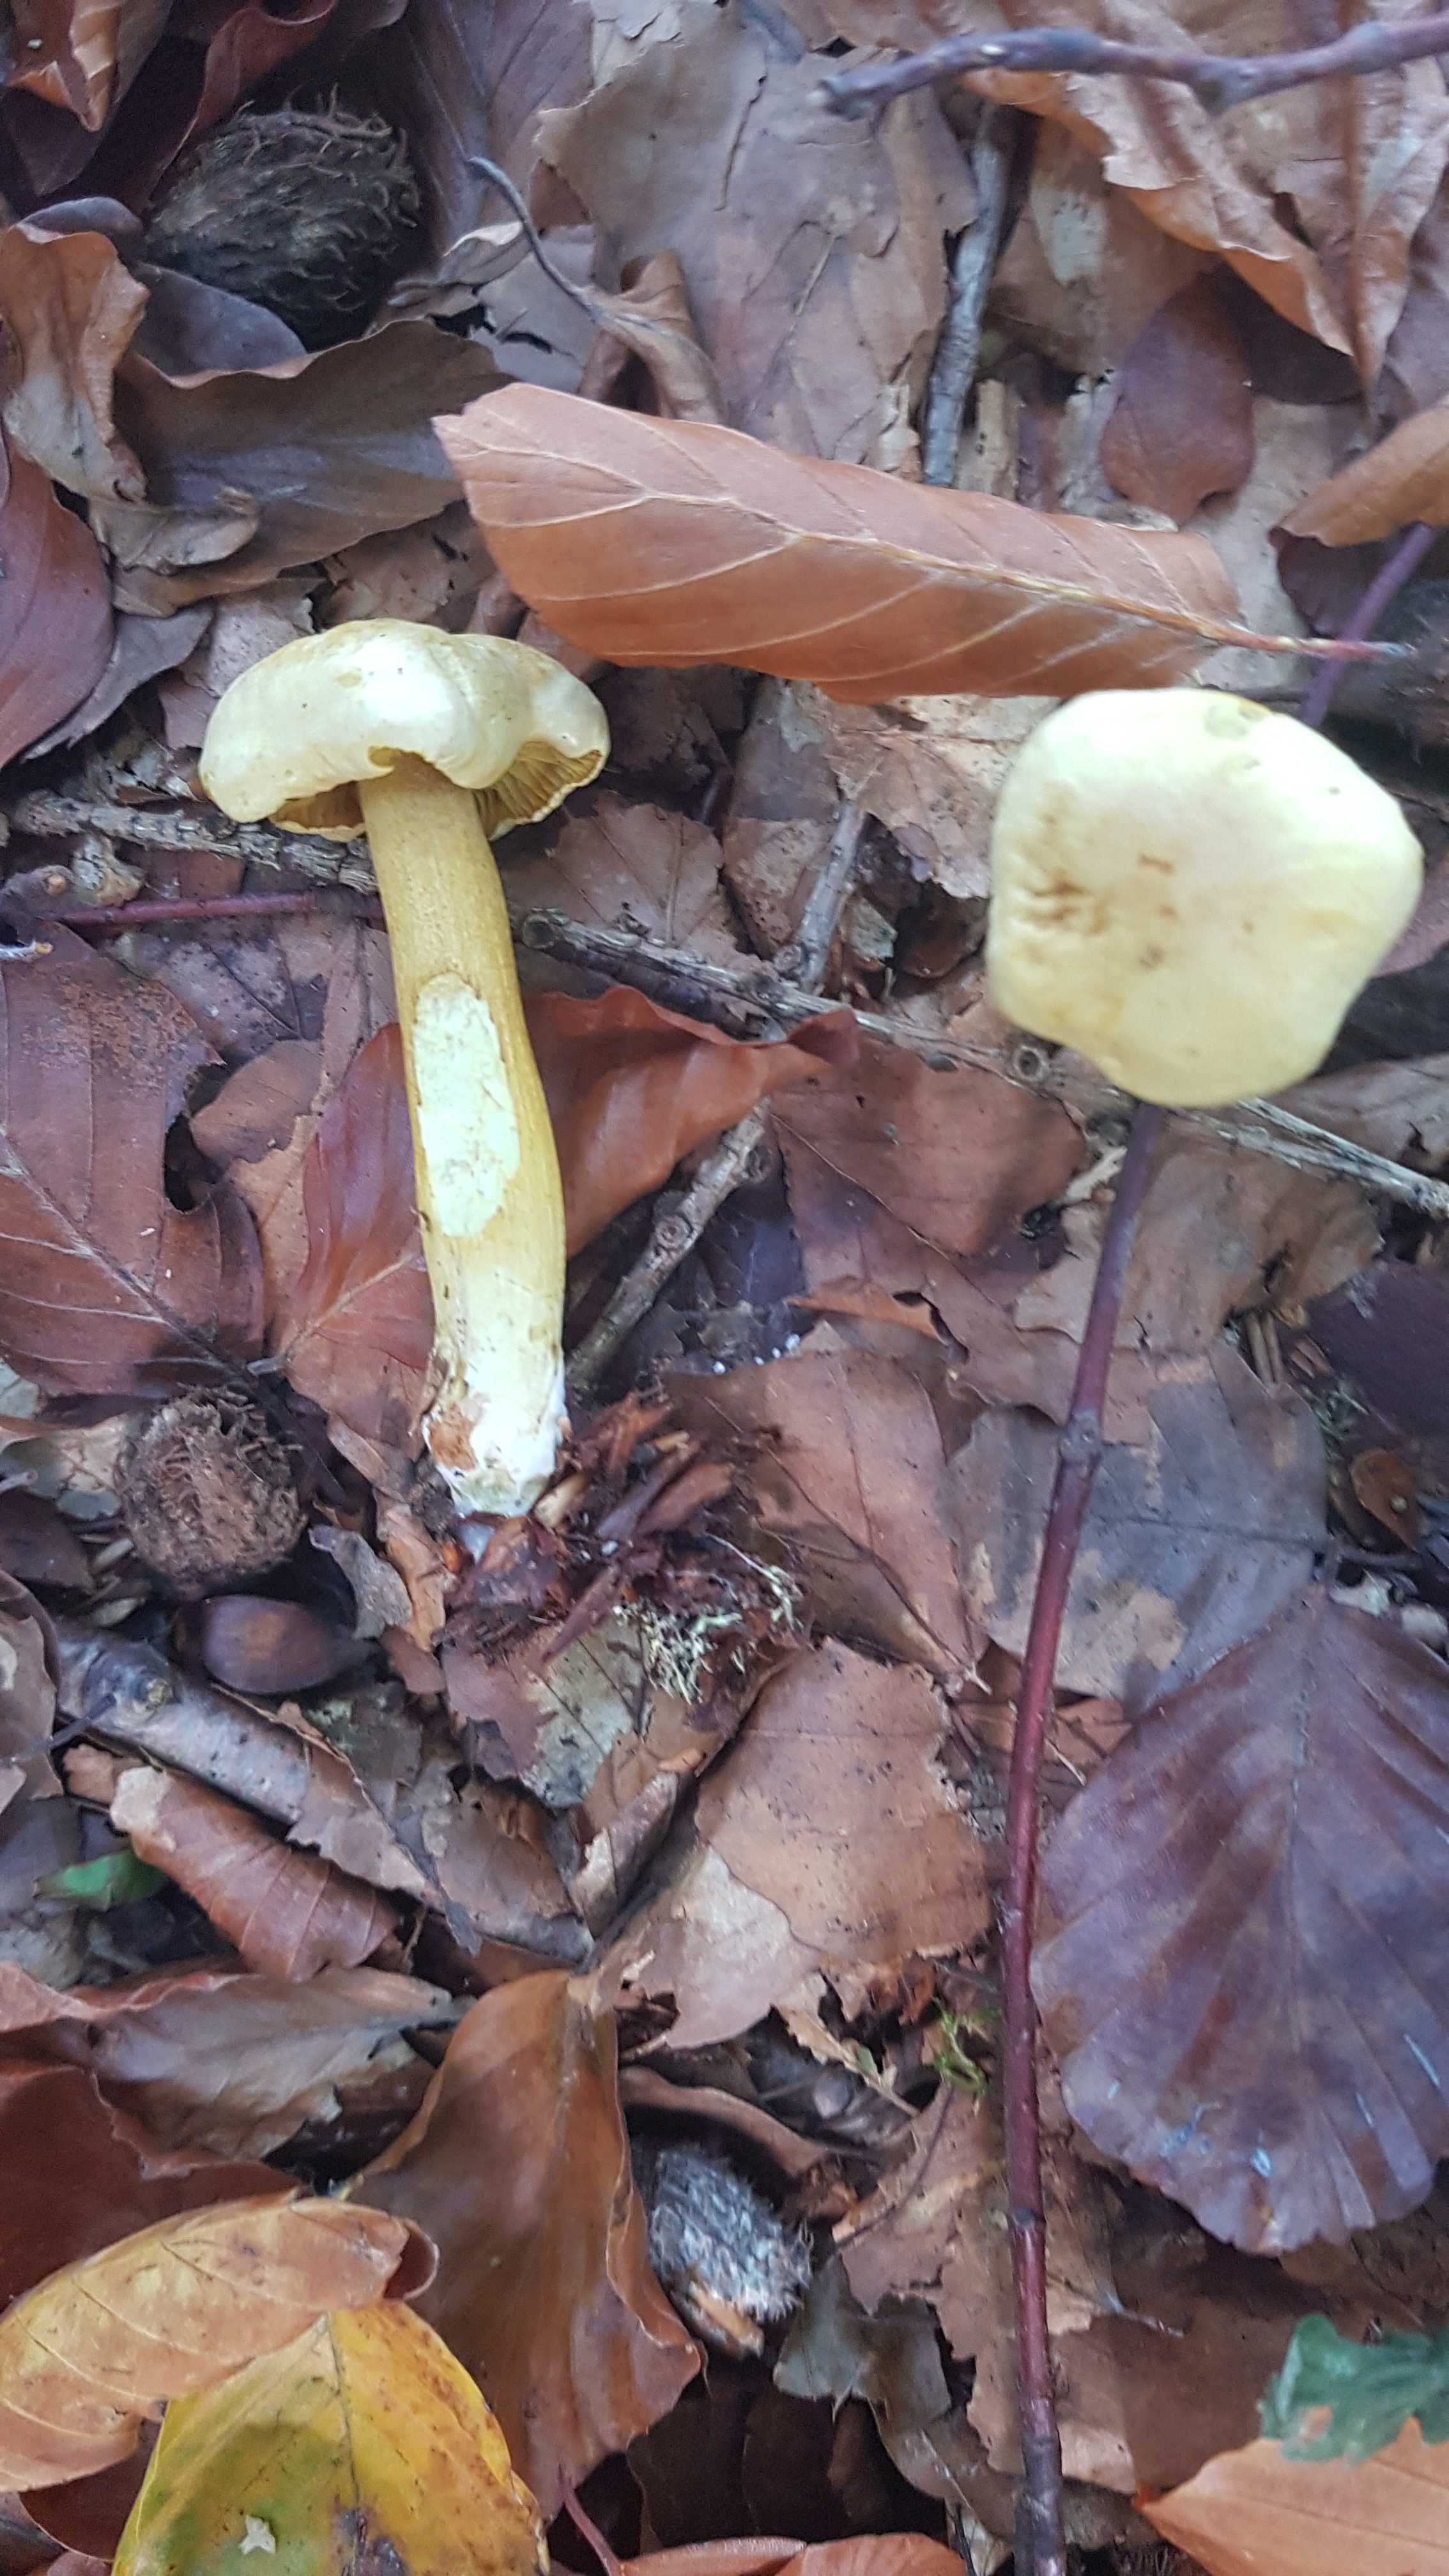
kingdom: Fungi
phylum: Basidiomycota
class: Agaricomycetes
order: Agaricales
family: Tricholomataceae
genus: Tricholoma
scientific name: Tricholoma sulphureum
